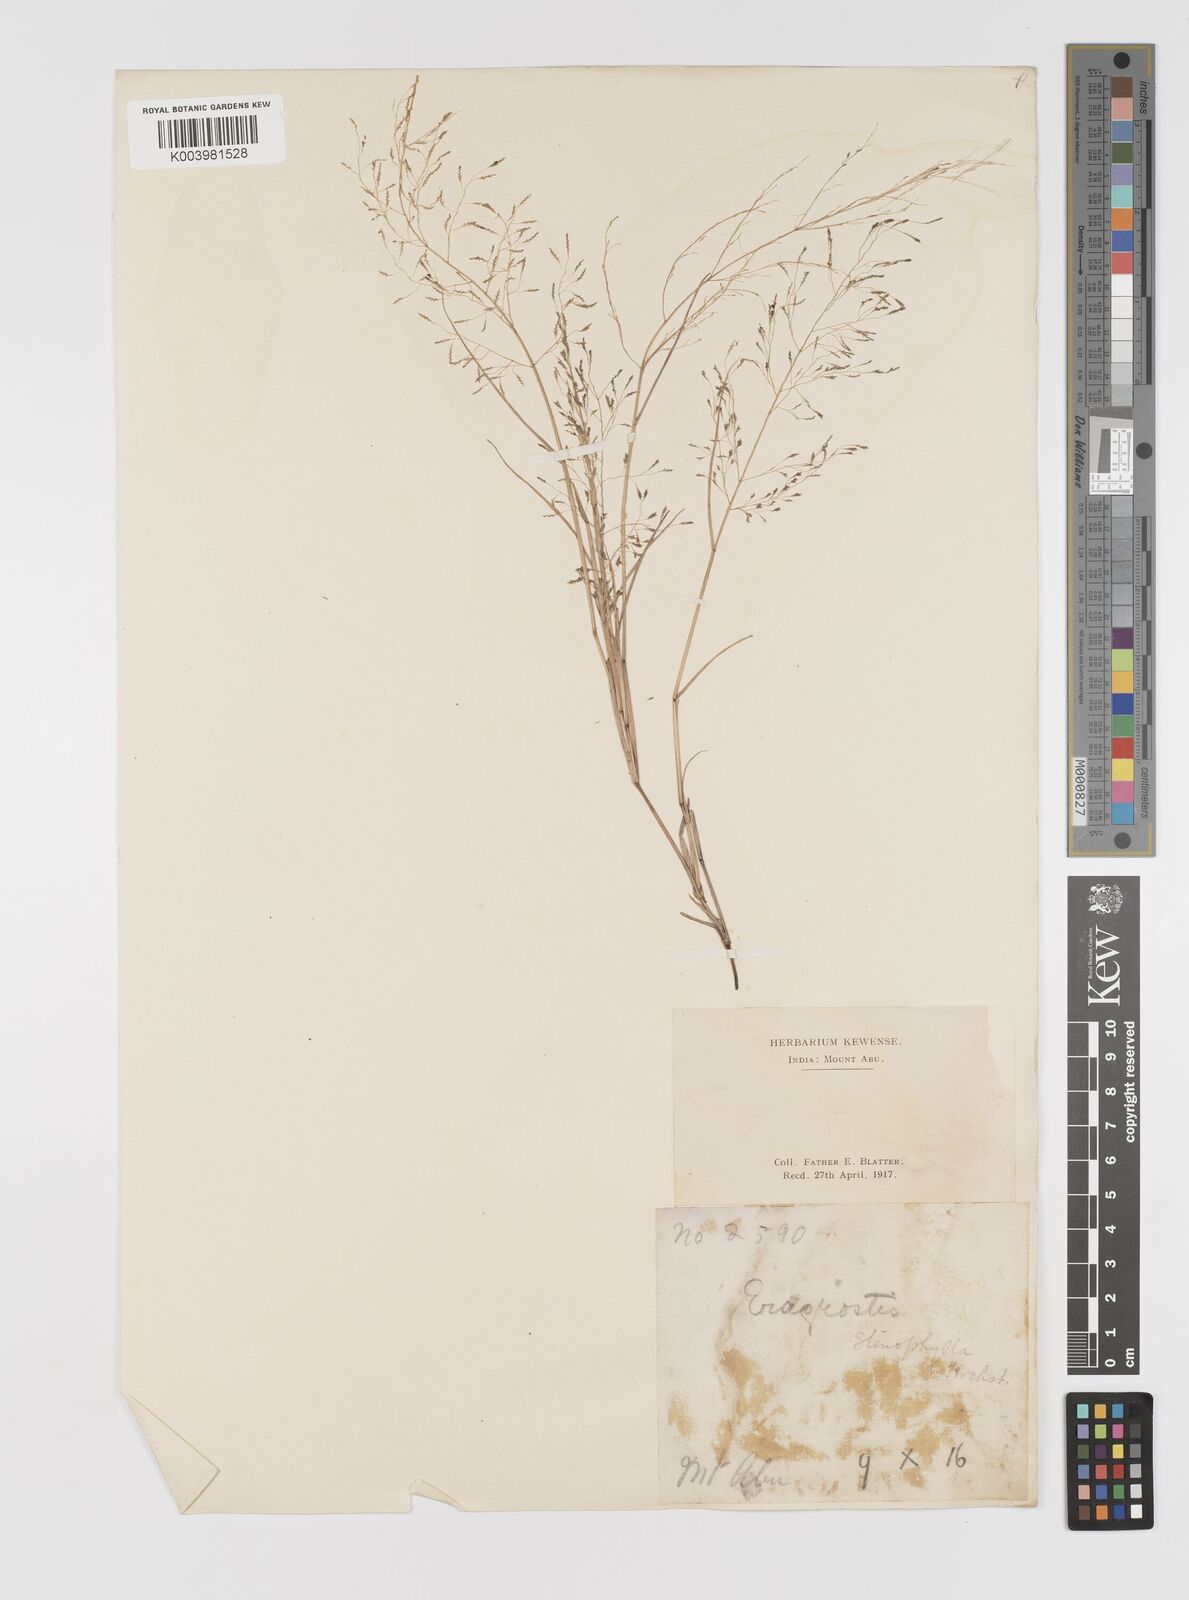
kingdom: Plantae
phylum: Tracheophyta
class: Liliopsida
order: Poales
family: Poaceae
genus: Eragrostis
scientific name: Eragrostis pilosa
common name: Indian lovegrass
